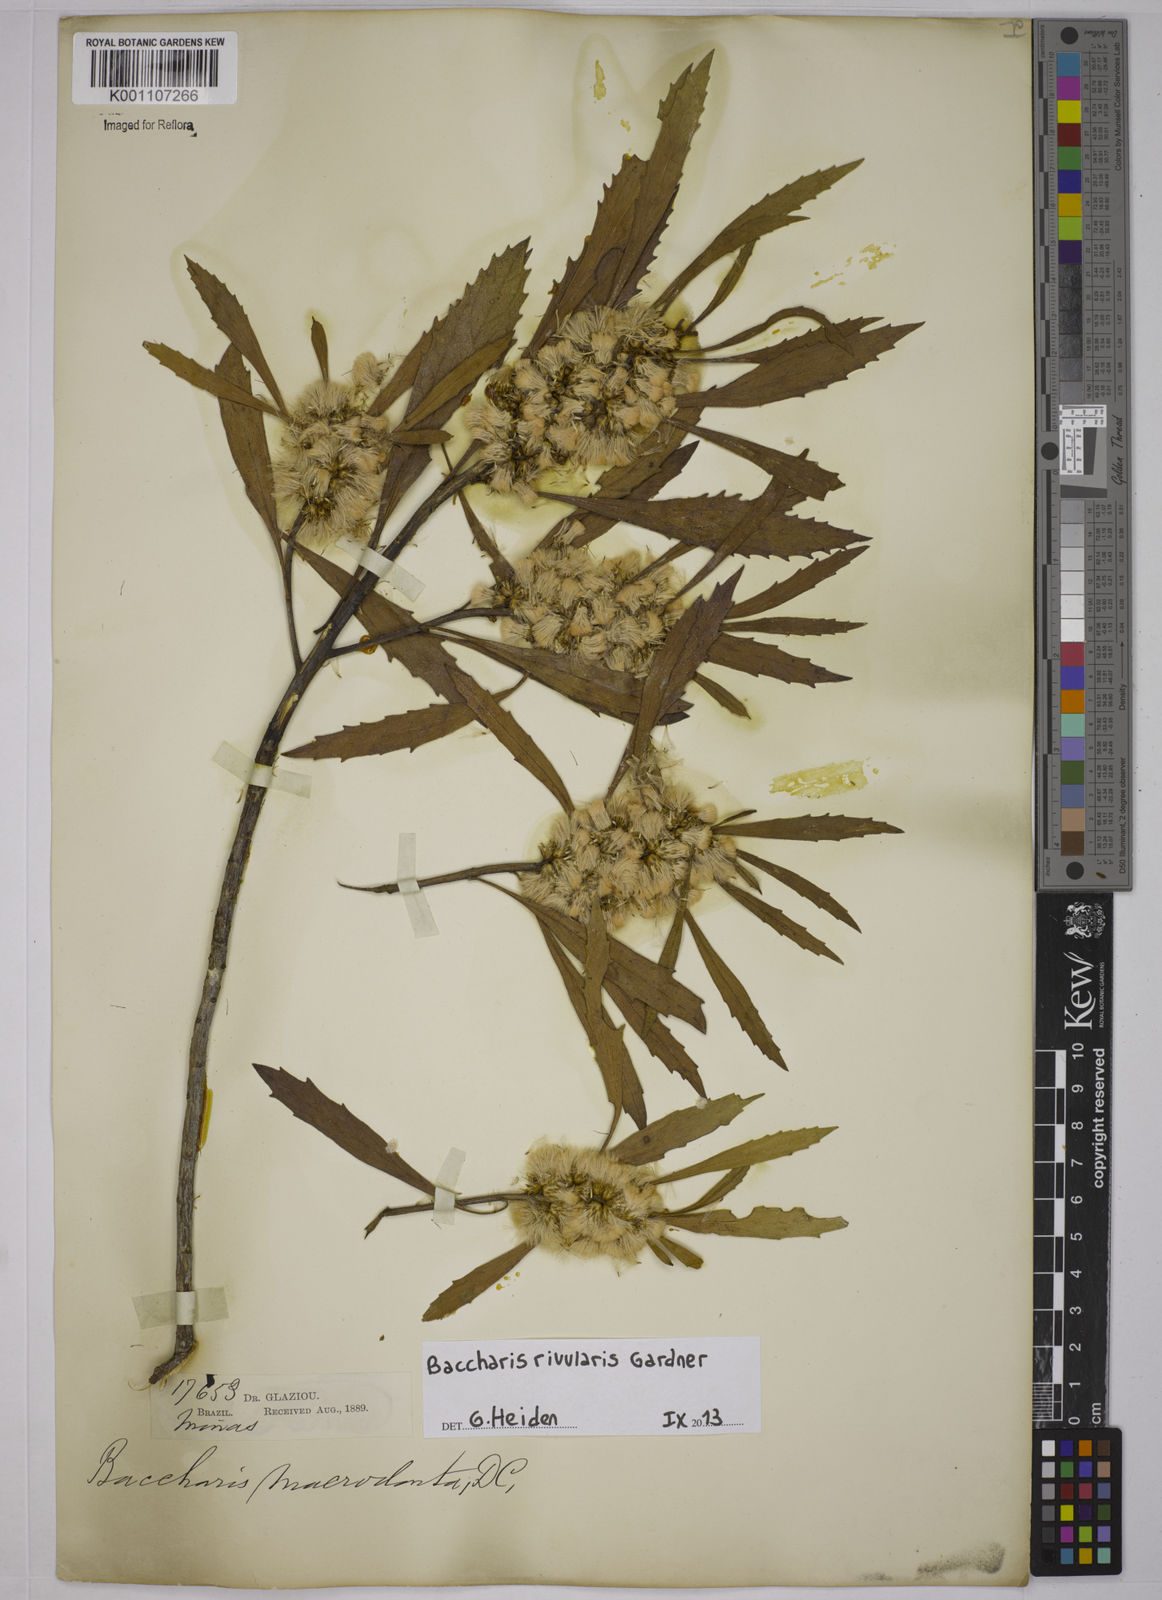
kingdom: Plantae
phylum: Tracheophyta
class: Magnoliopsida
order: Asterales
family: Asteraceae
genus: Baccharis
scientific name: Baccharis rivularis
